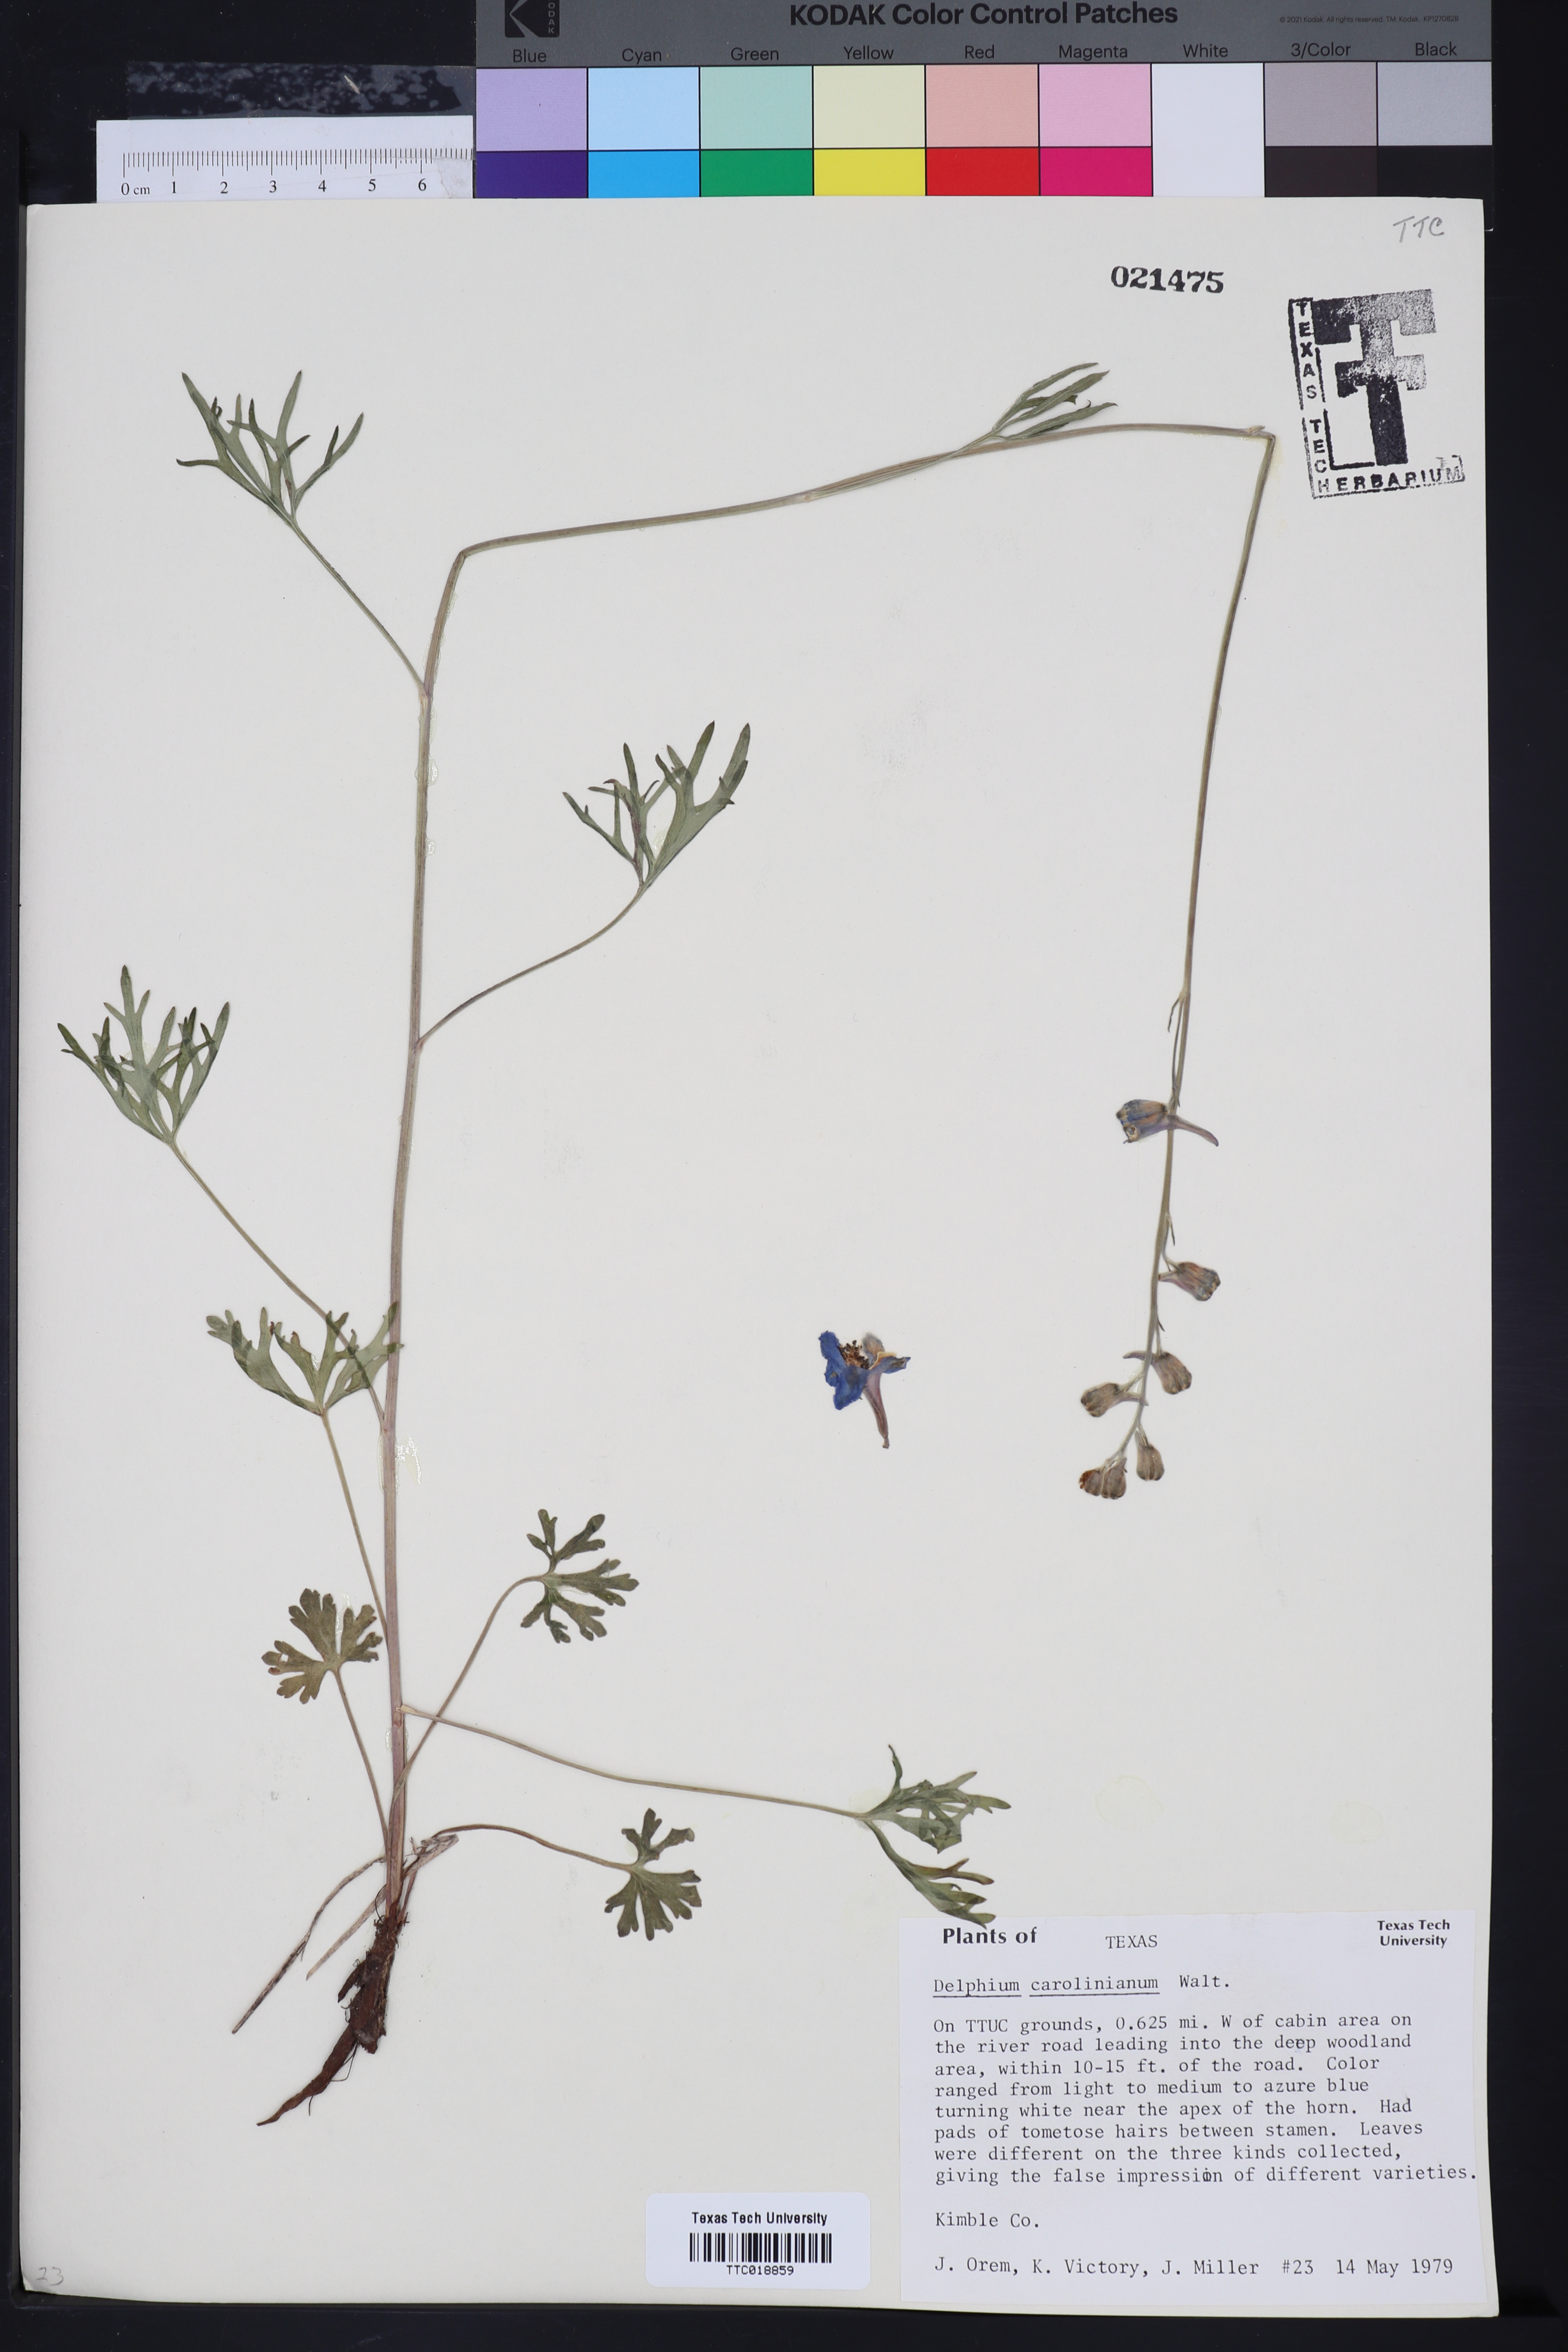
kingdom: Plantae
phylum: Tracheophyta
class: Magnoliopsida
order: Ranunculales
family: Ranunculaceae
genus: Delphinium
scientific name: Delphinium carolinianum
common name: Carolina larkspur
